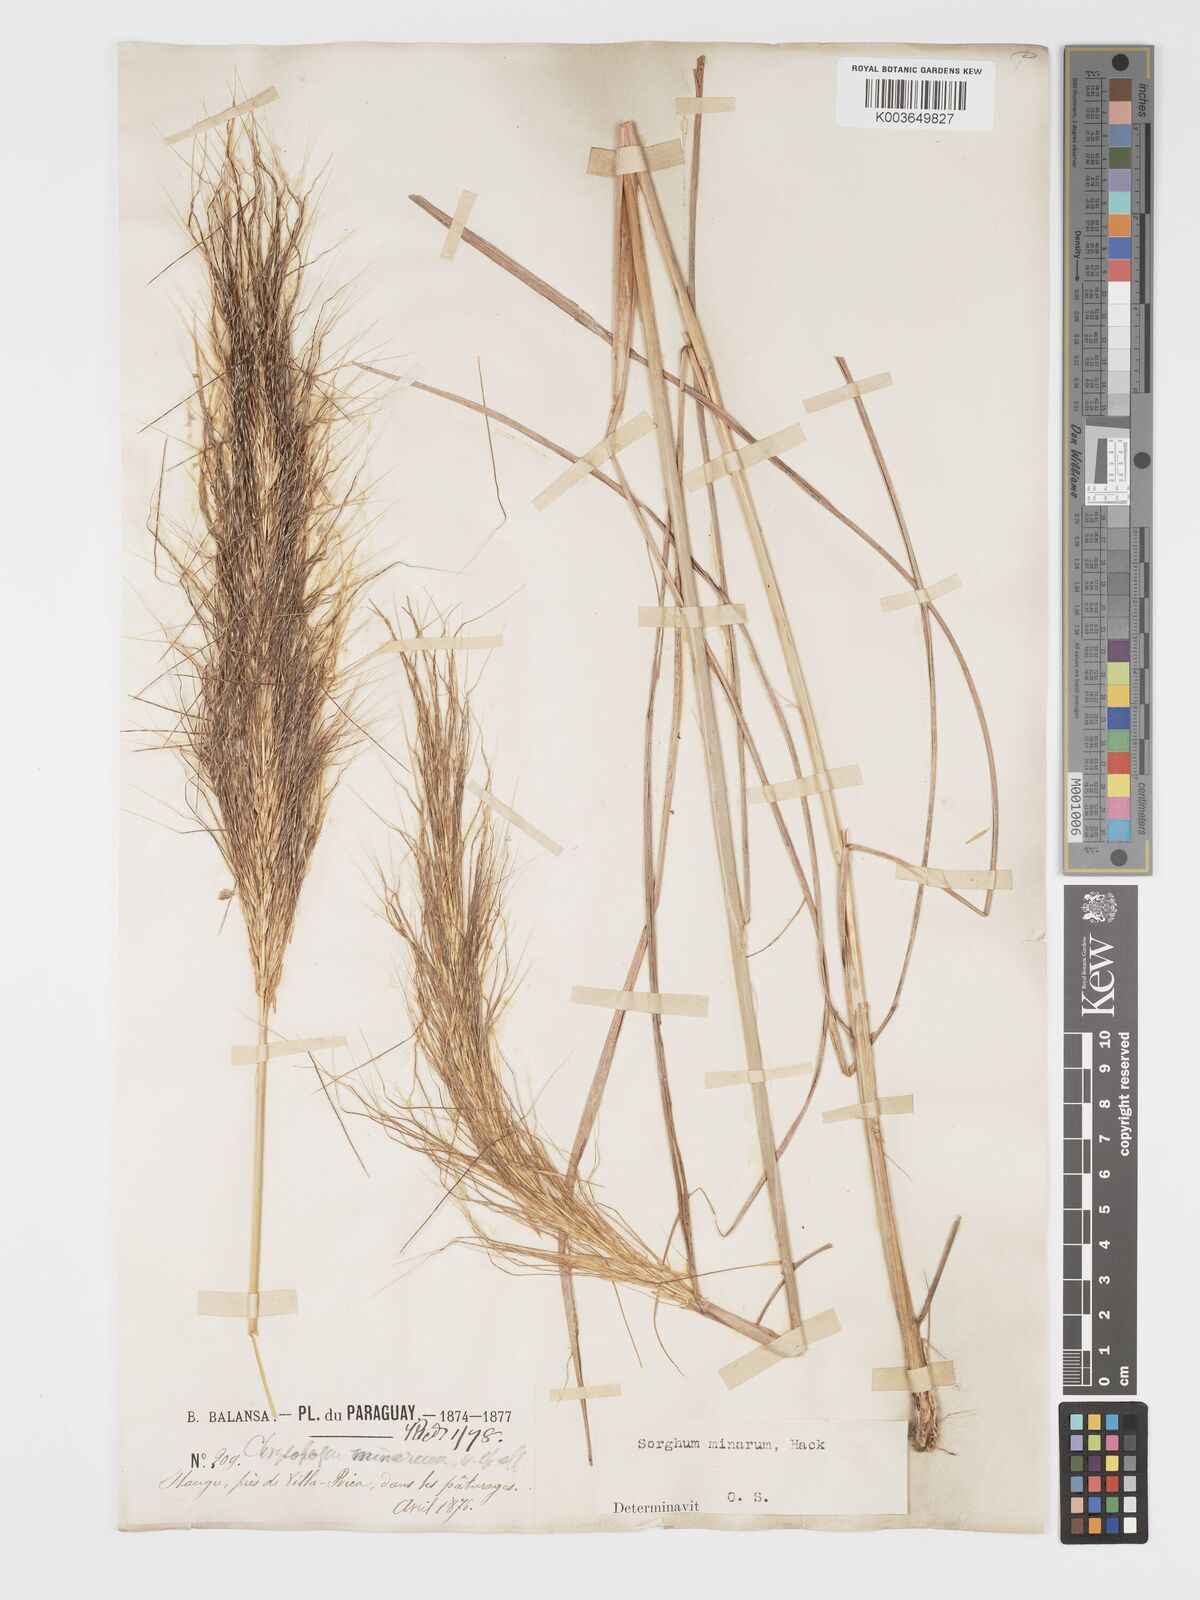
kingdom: Plantae
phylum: Tracheophyta
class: Liliopsida
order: Poales
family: Poaceae
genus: Sorghastrum
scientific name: Sorghastrum minarum
